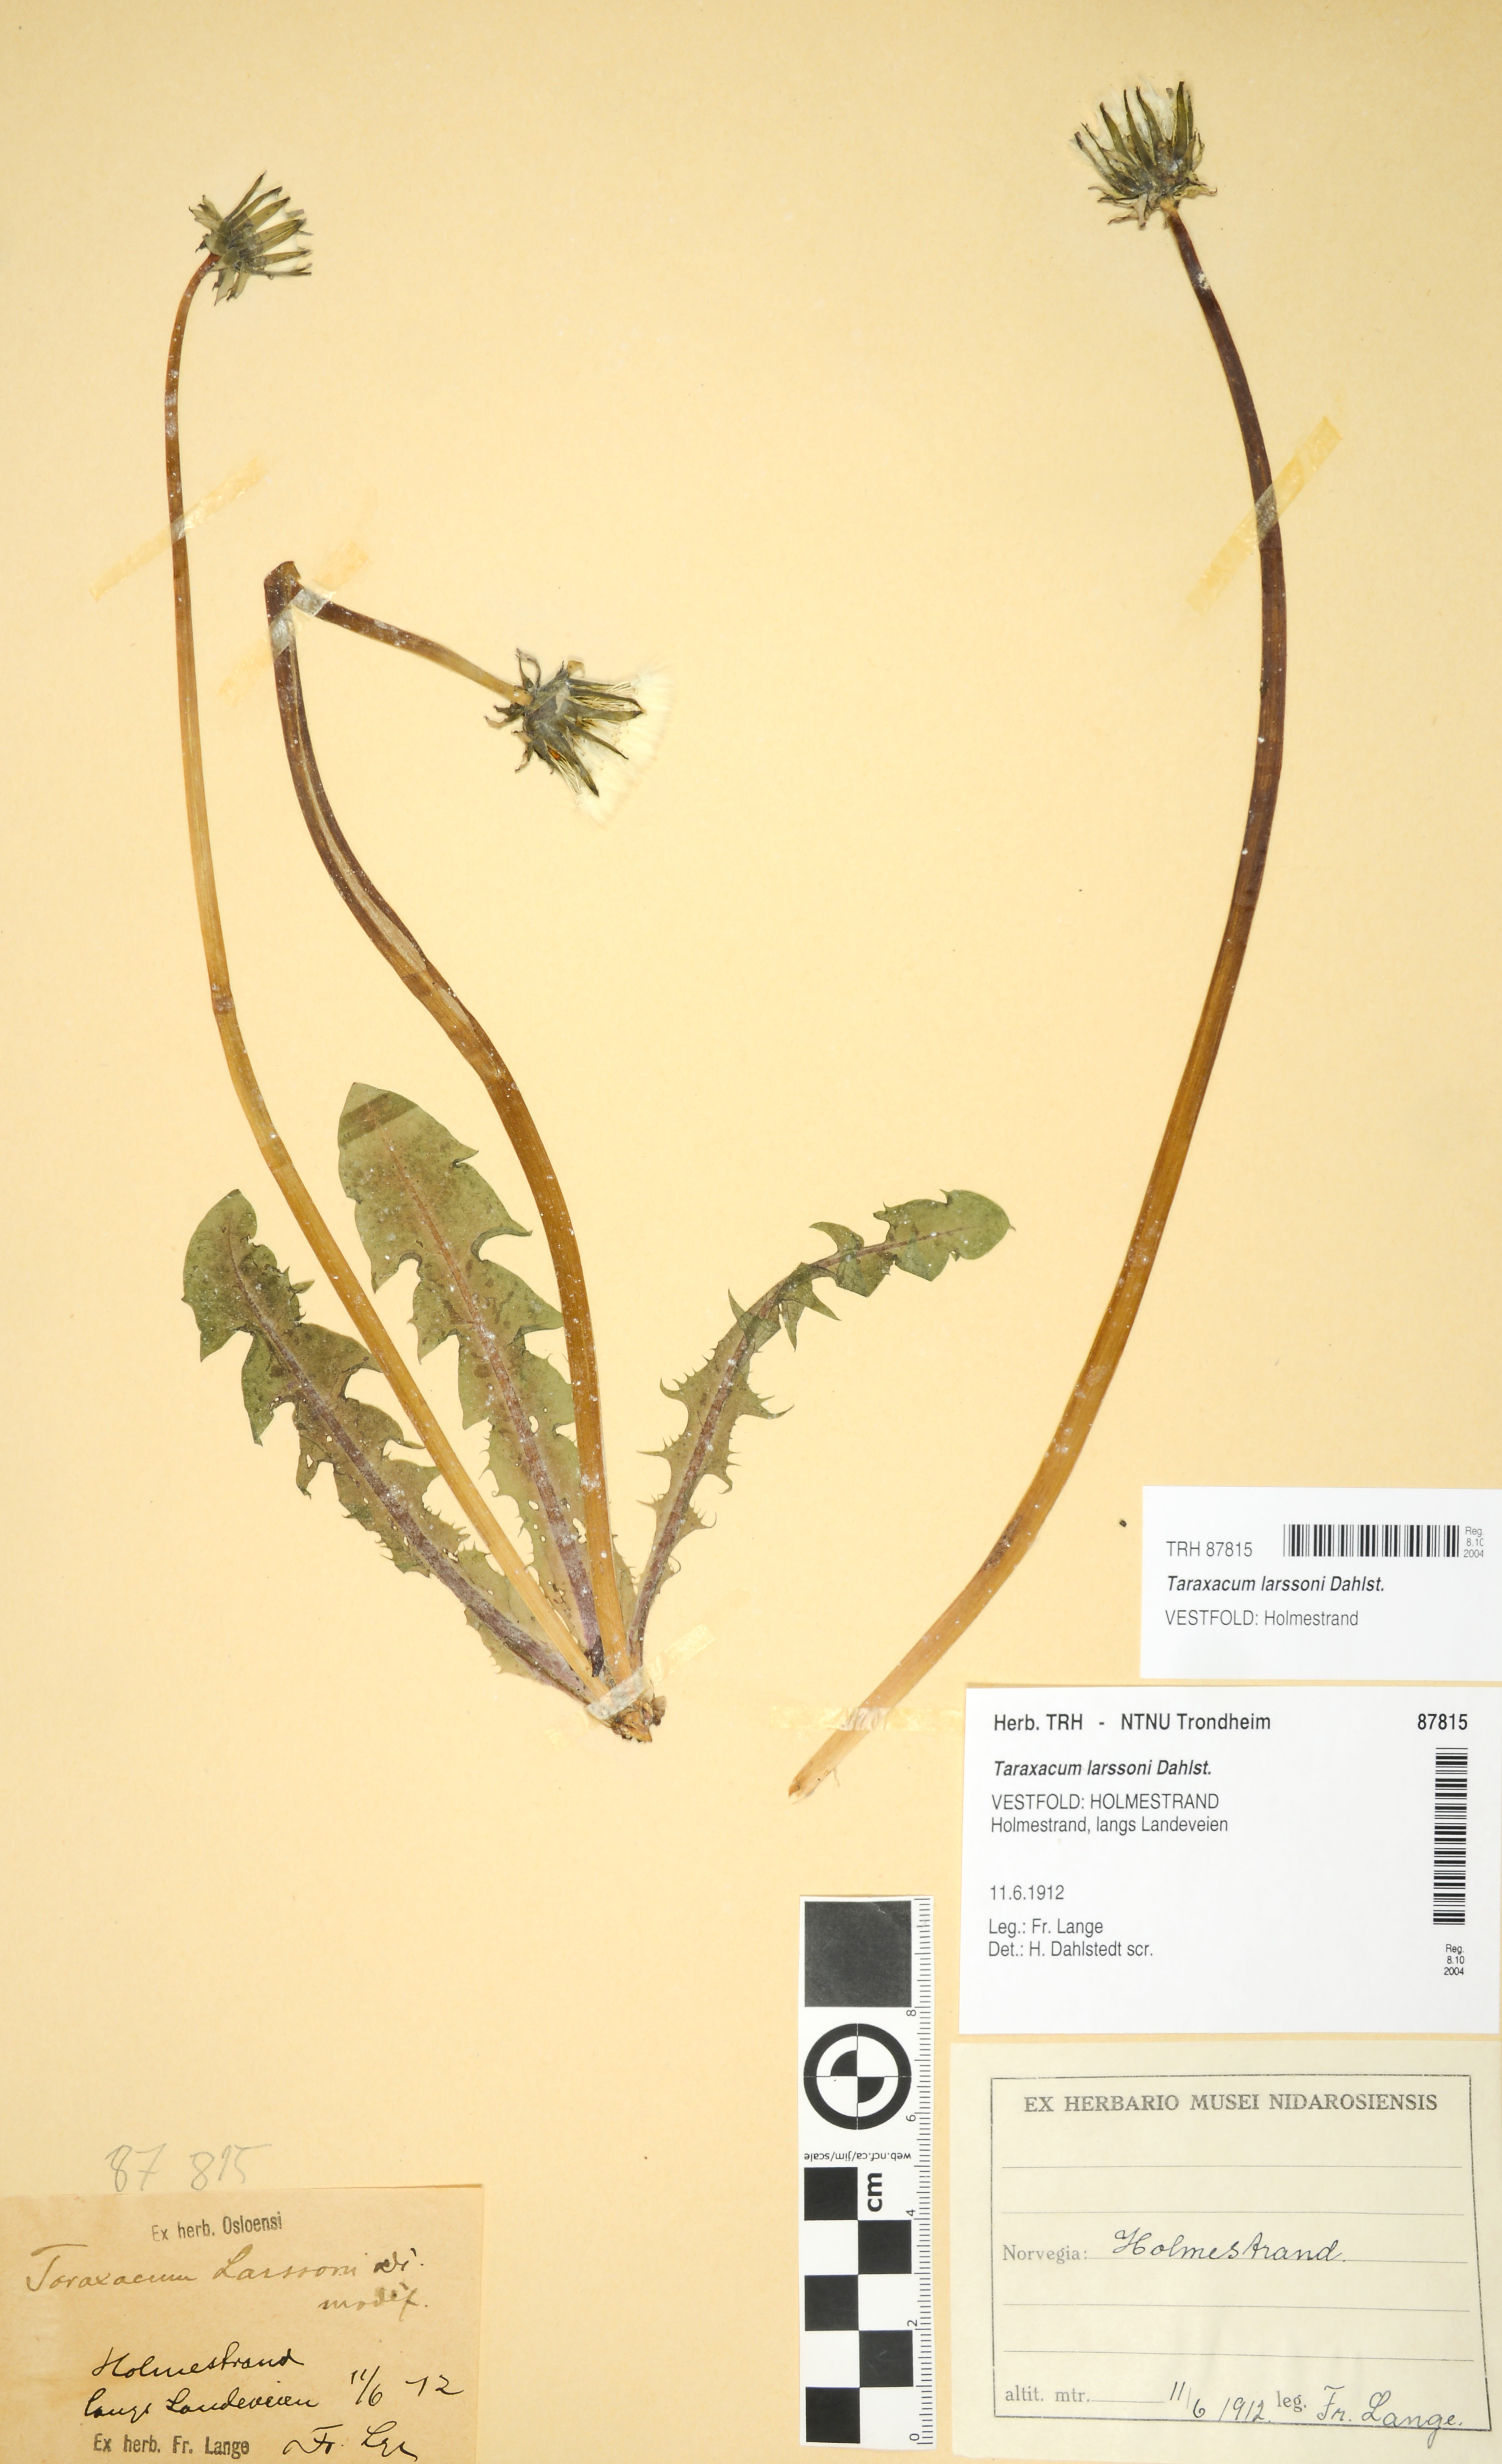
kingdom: Plantae
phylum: Tracheophyta
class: Magnoliopsida
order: Asterales
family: Asteraceae
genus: Taraxacum
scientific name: Taraxacum larssonii
